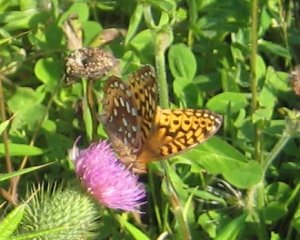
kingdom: Animalia
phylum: Arthropoda
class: Insecta
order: Lepidoptera
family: Nymphalidae
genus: Speyeria
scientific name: Speyeria cybele
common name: Great Spangled Fritillary
